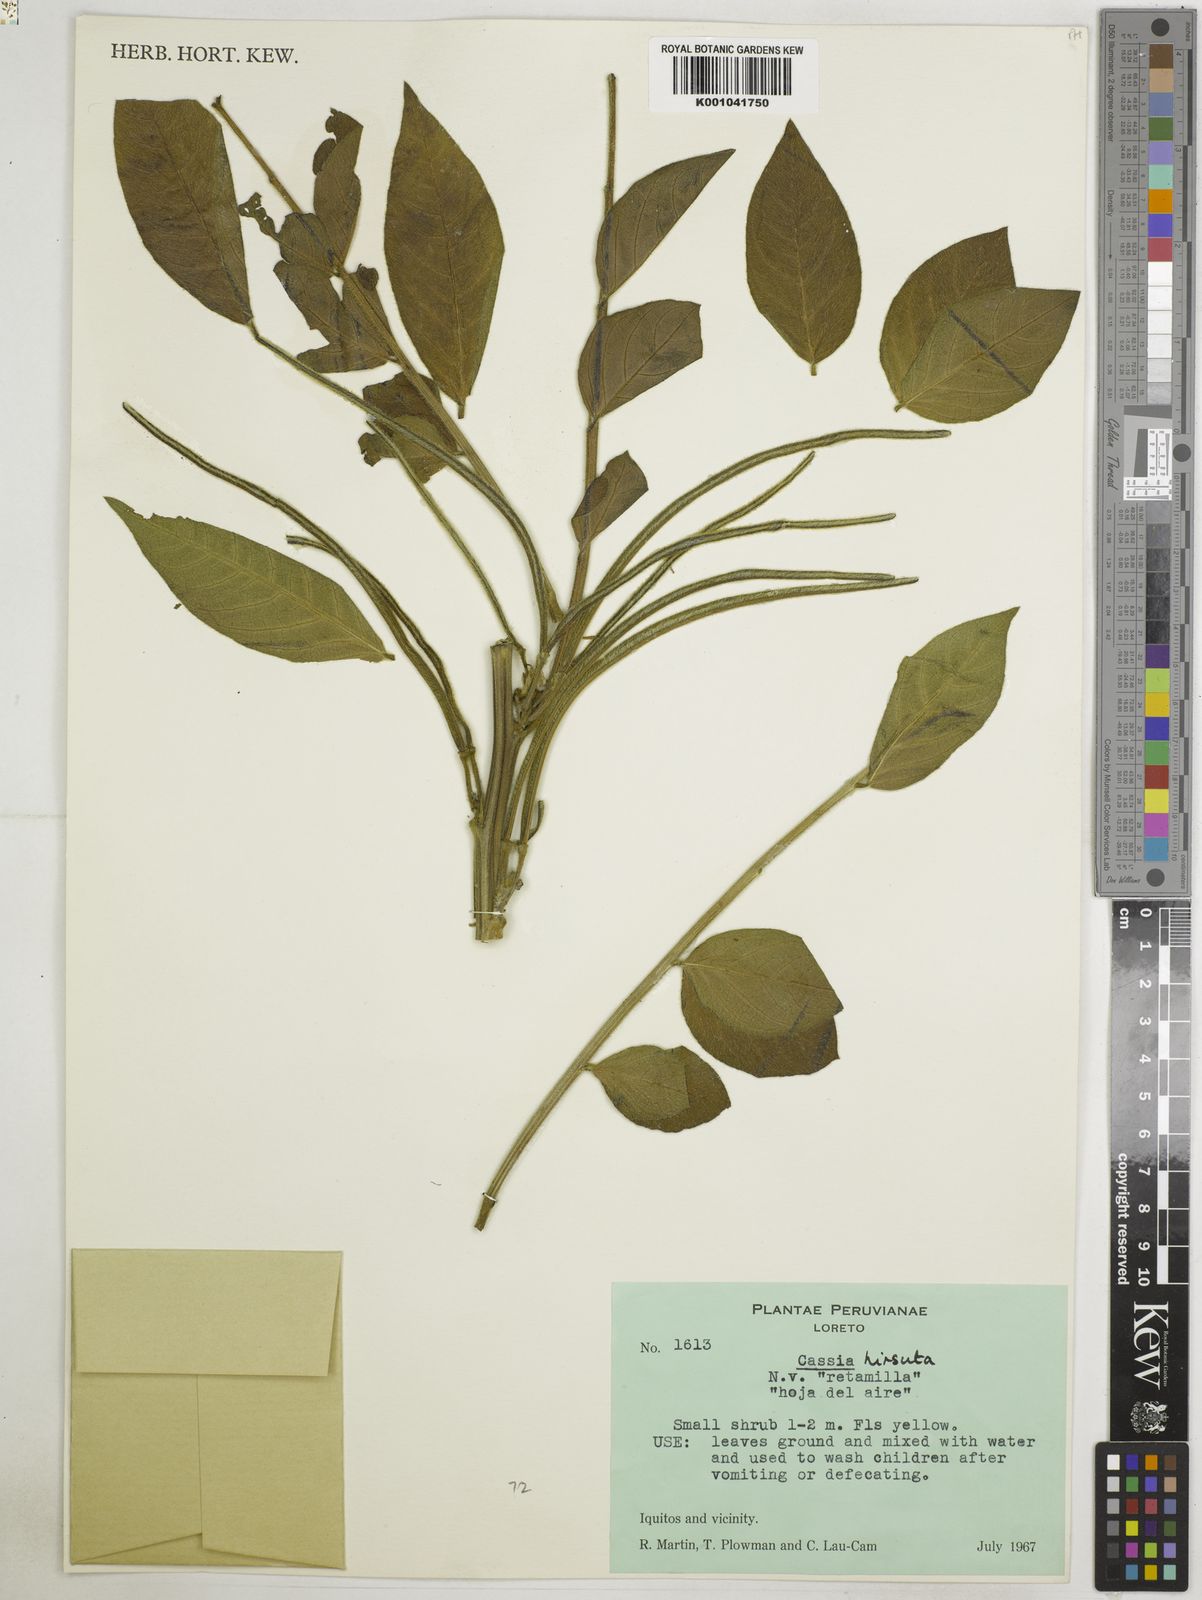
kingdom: Plantae
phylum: Tracheophyta
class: Magnoliopsida
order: Fabales
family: Fabaceae
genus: Senna
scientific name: Senna hirsuta
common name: Woolly senna
